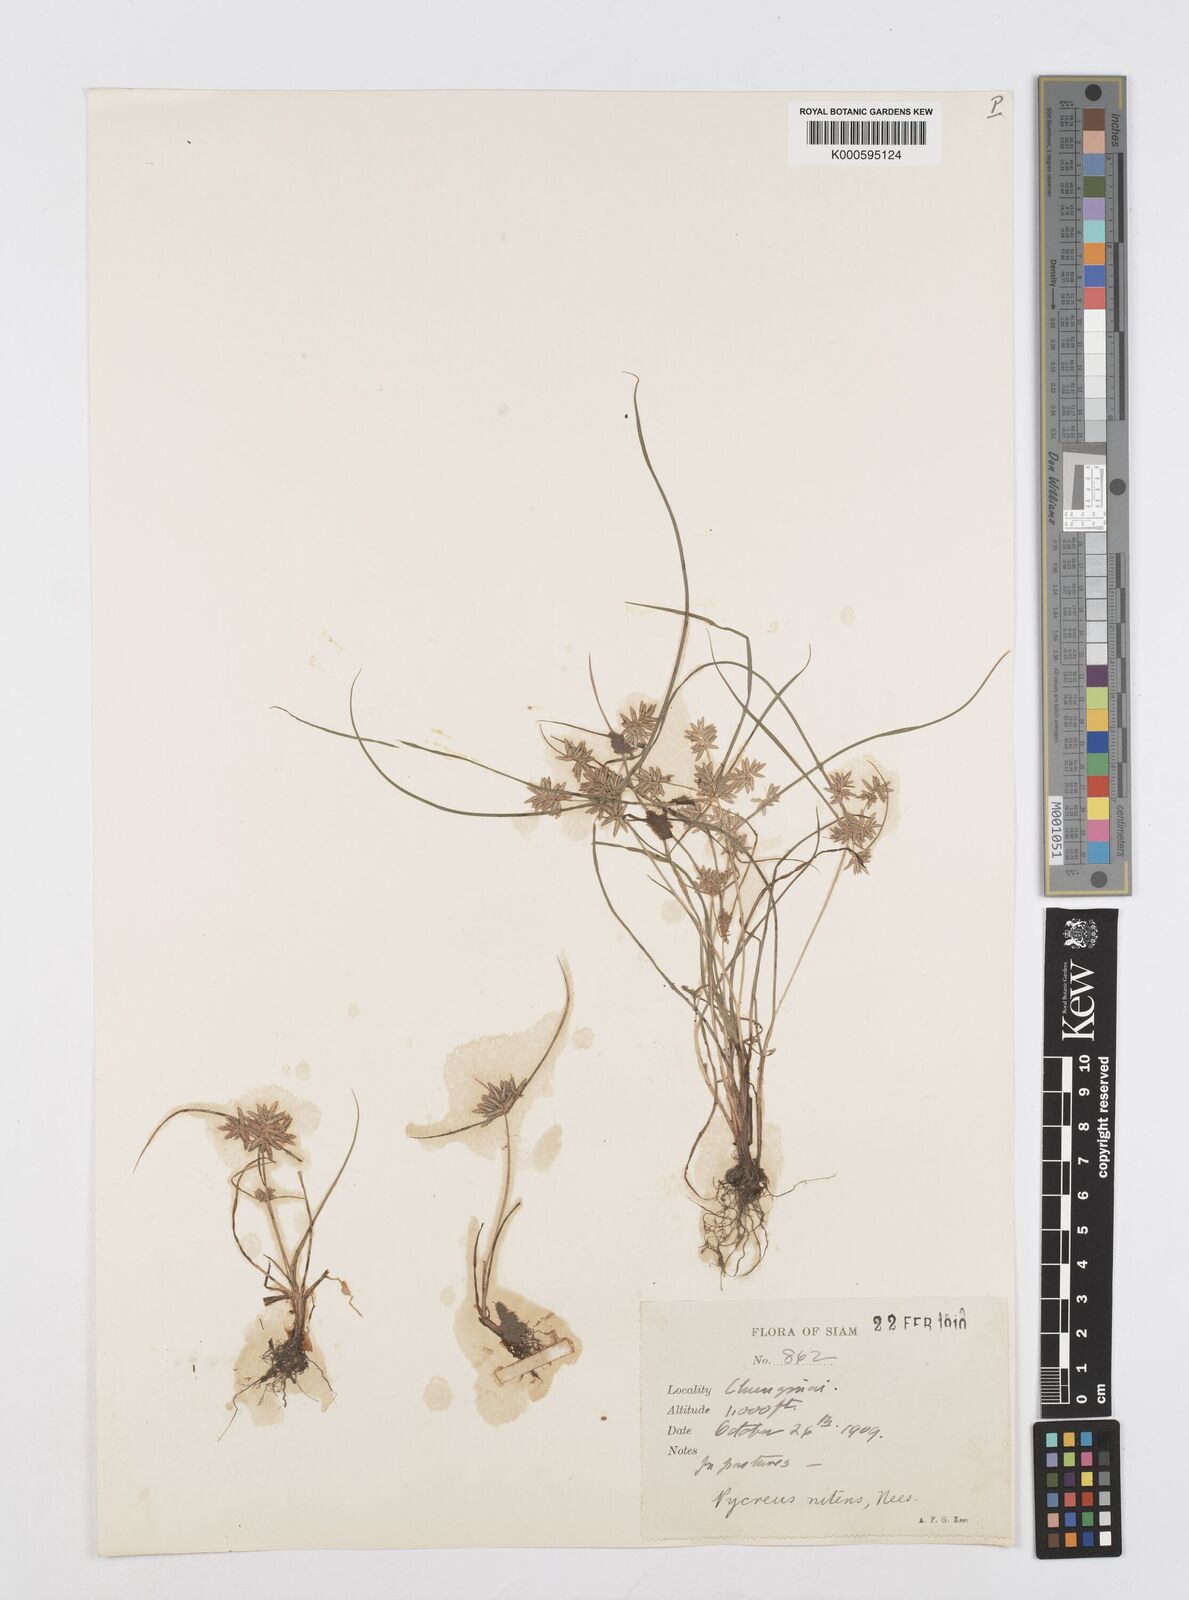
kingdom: Plantae
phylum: Tracheophyta
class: Liliopsida
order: Poales
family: Cyperaceae
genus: Cyperus
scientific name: Cyperus pumilus
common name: Low flatsedge
